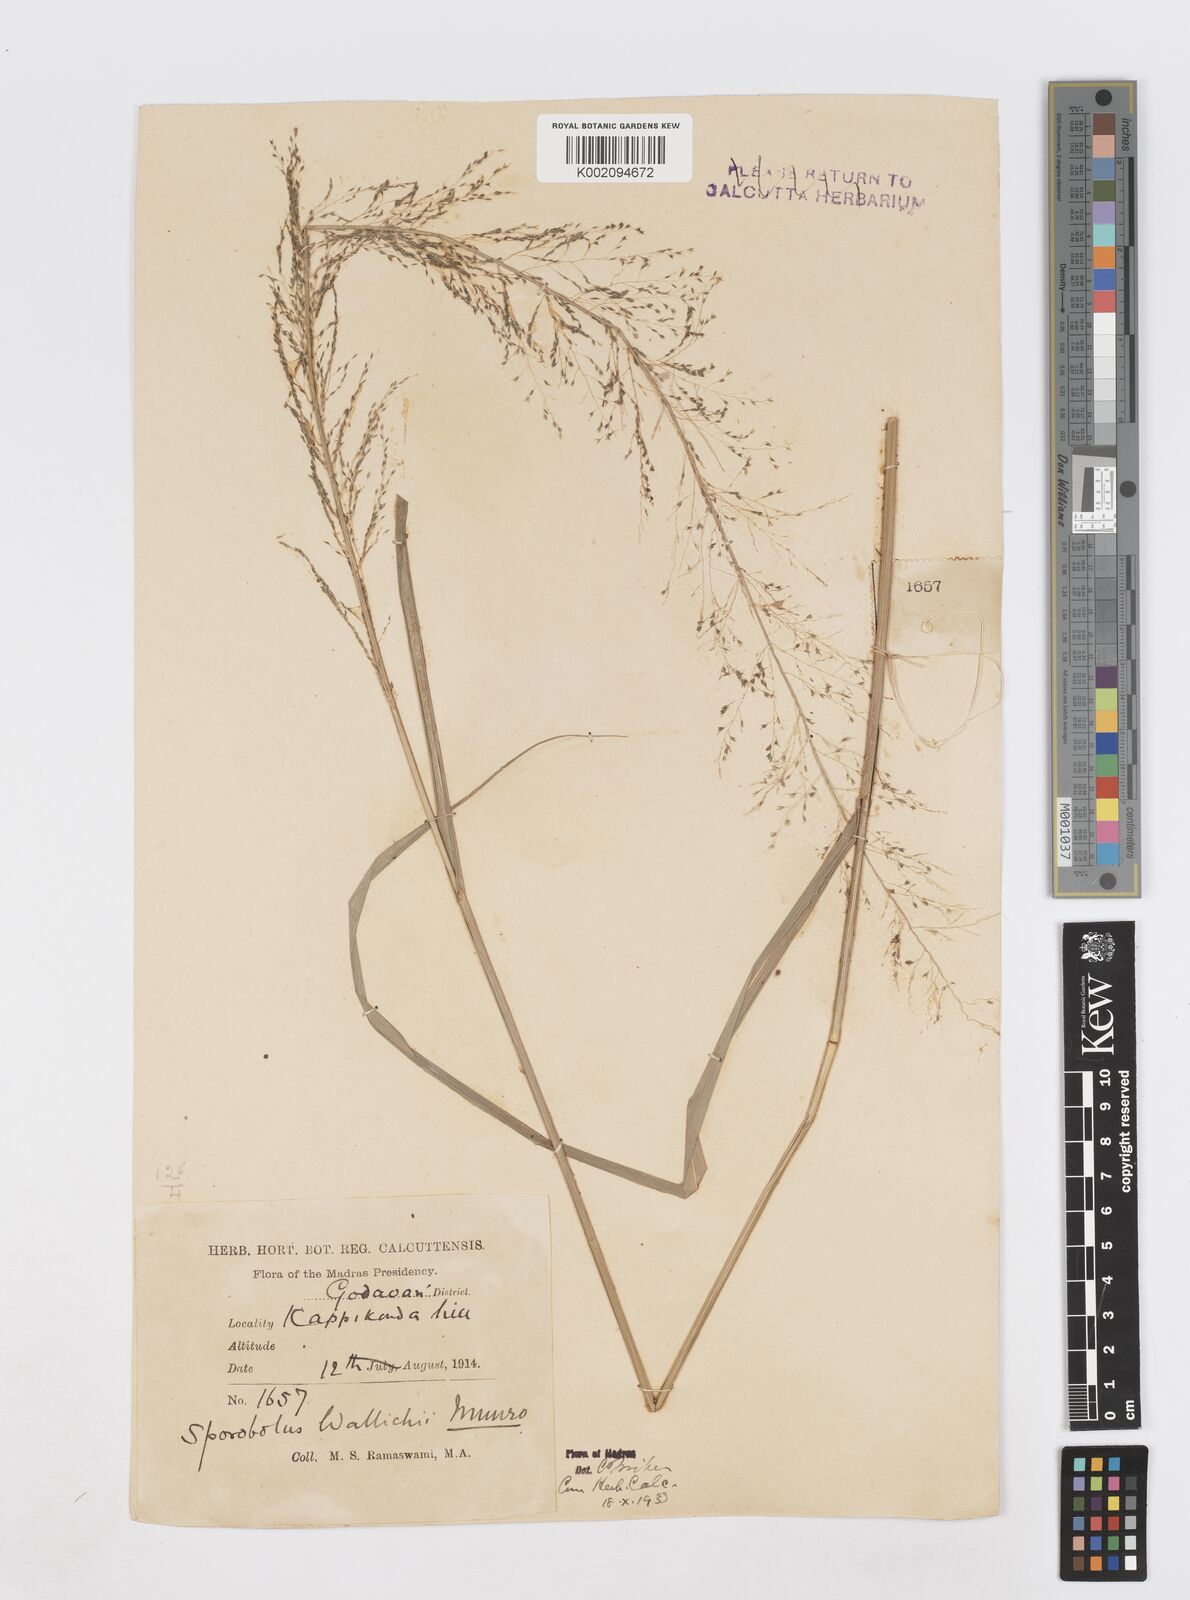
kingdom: Plantae
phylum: Tracheophyta
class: Liliopsida
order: Poales
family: Poaceae
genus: Sporobolus
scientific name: Sporobolus wallichii
